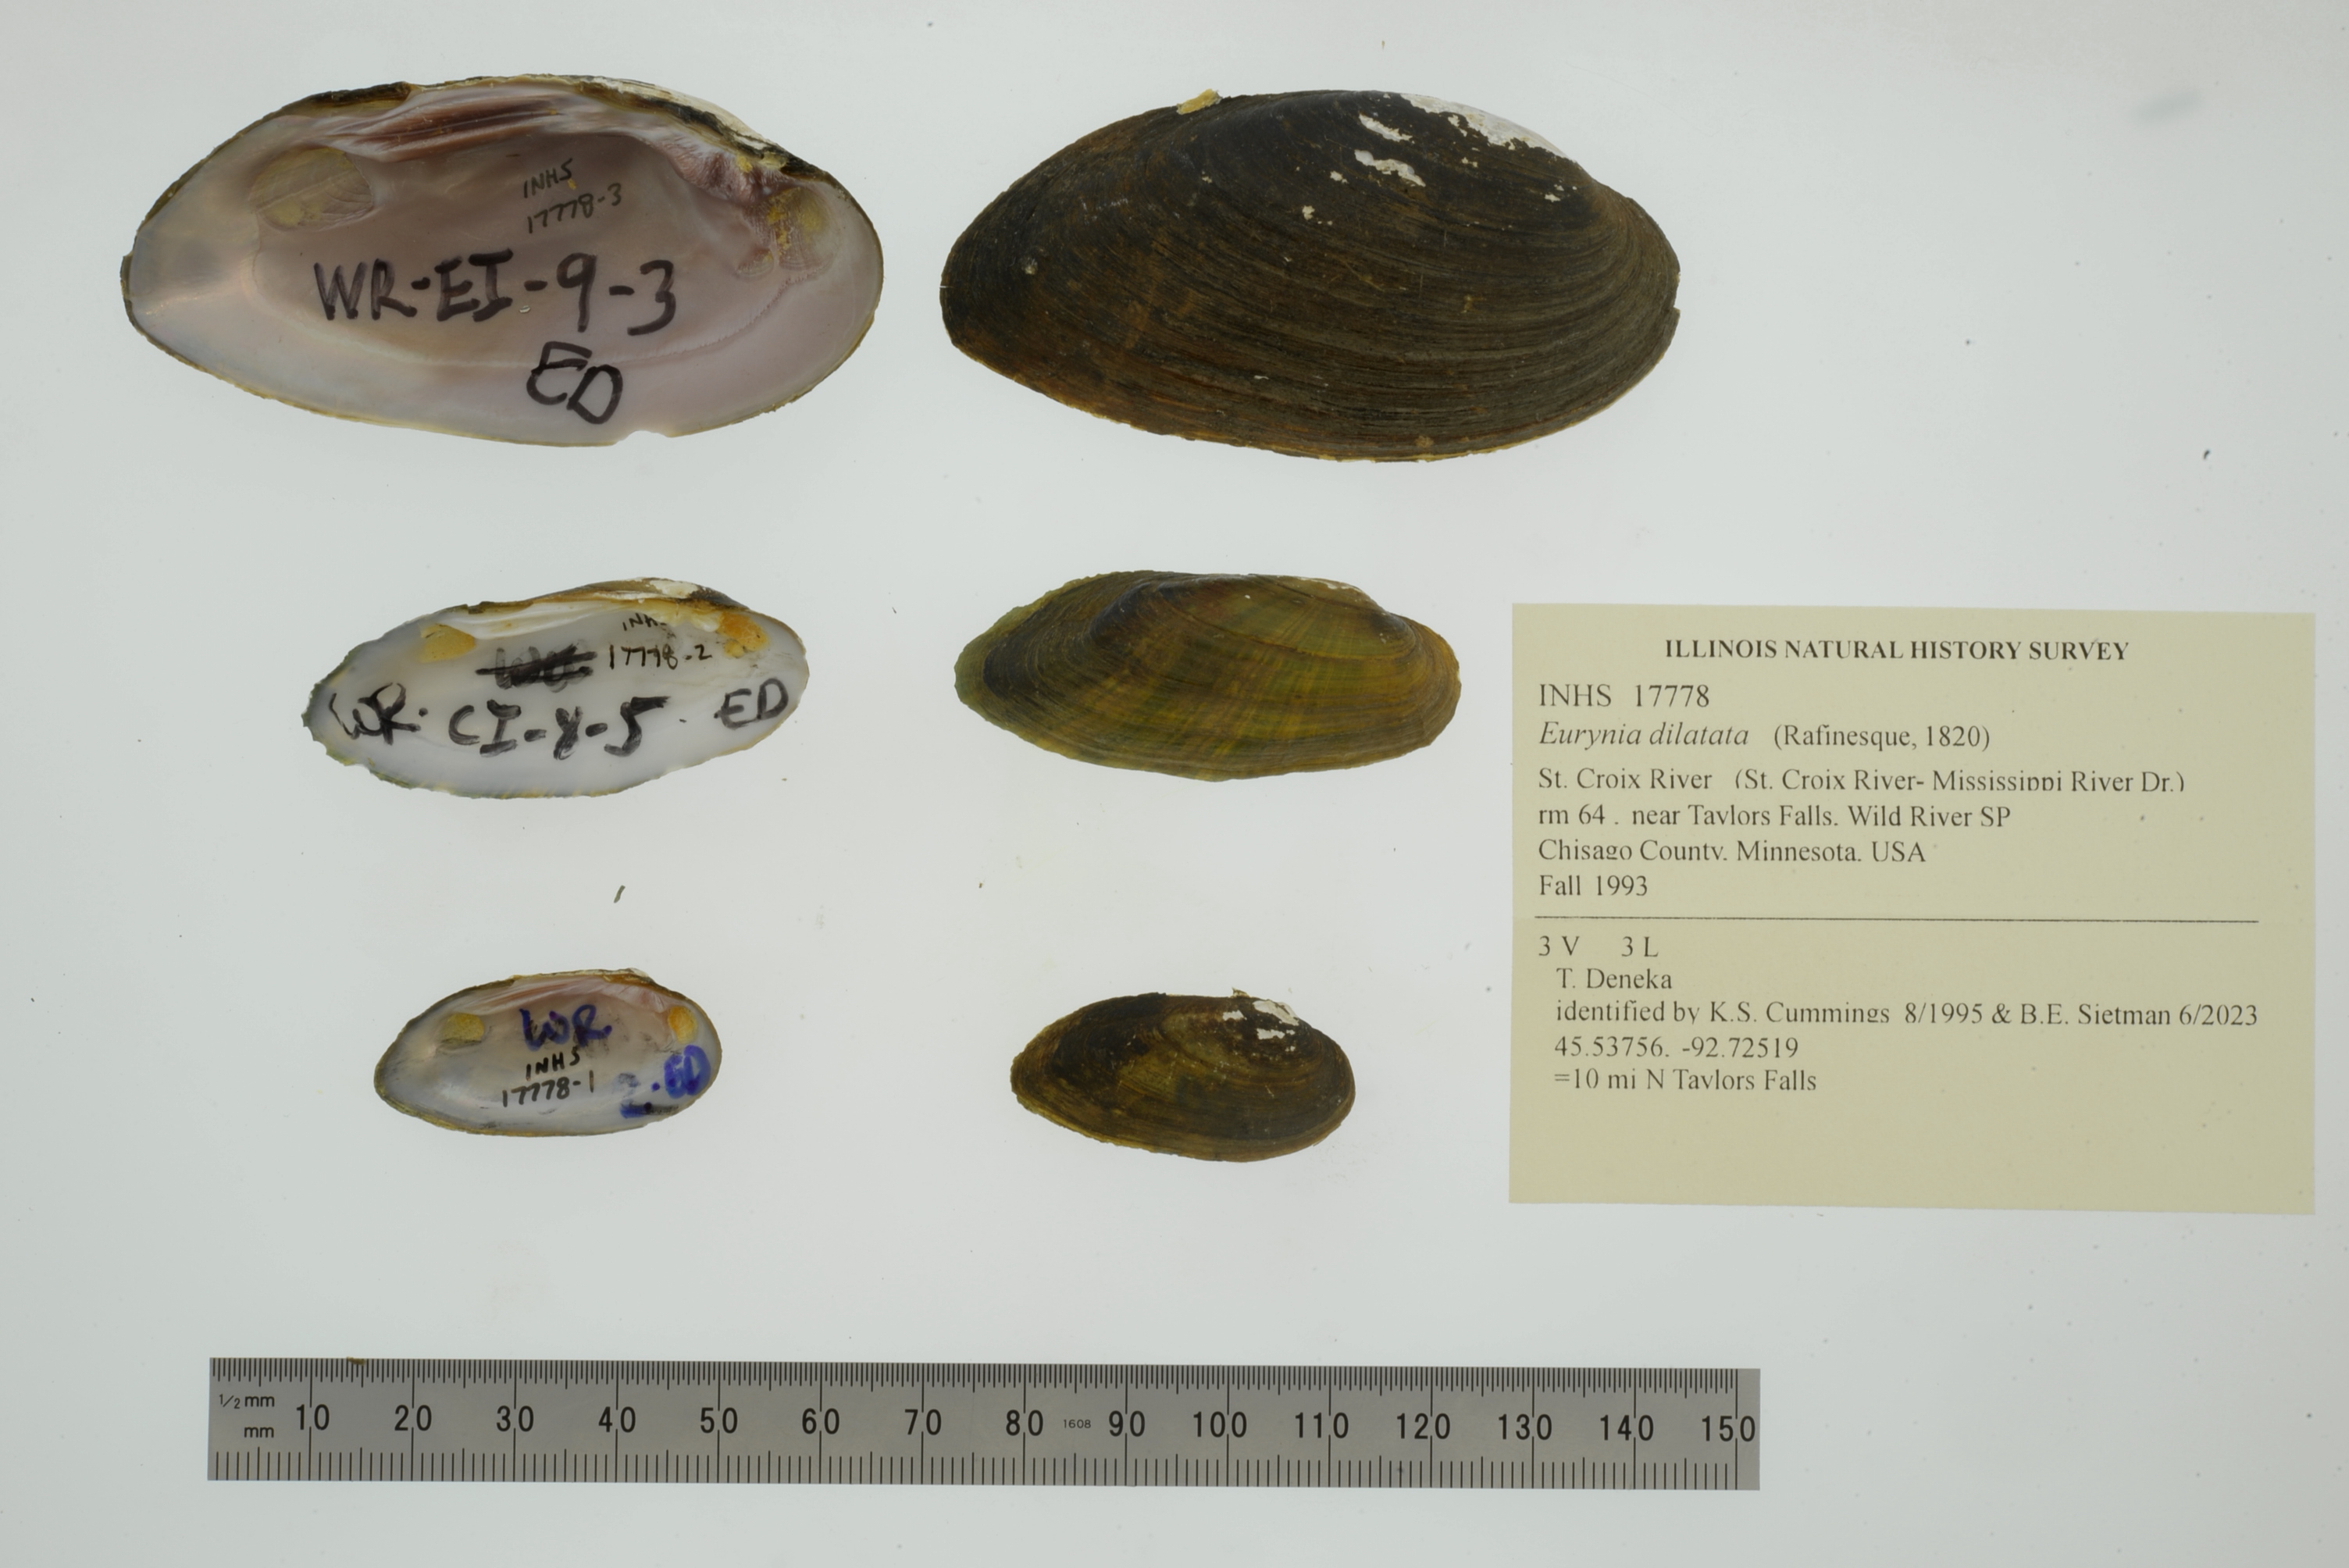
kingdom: Animalia
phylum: Mollusca
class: Bivalvia
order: Unionida
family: Unionidae
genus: Eurynia
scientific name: Eurynia dilatata
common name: Spike
